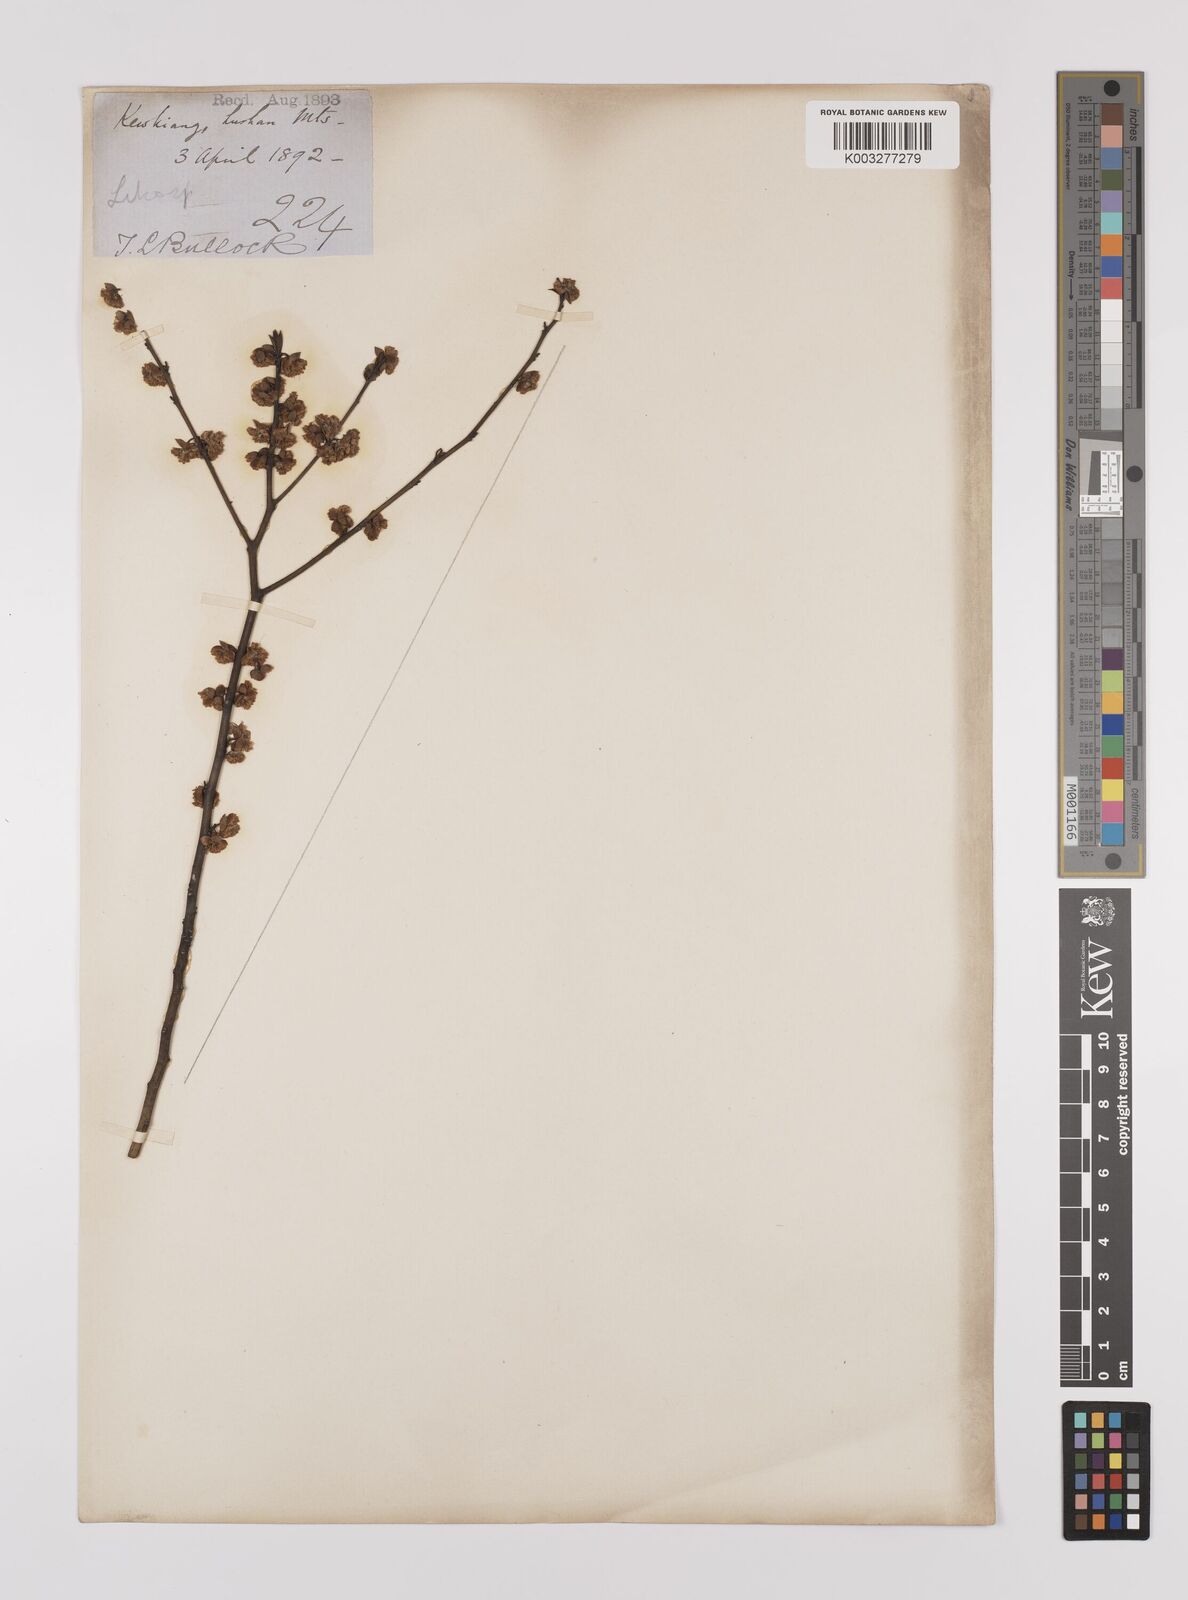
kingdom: Plantae
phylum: Tracheophyta
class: Magnoliopsida
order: Laurales
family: Lauraceae
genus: Litsea
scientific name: Litsea cubeba
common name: Mountain-pepper
